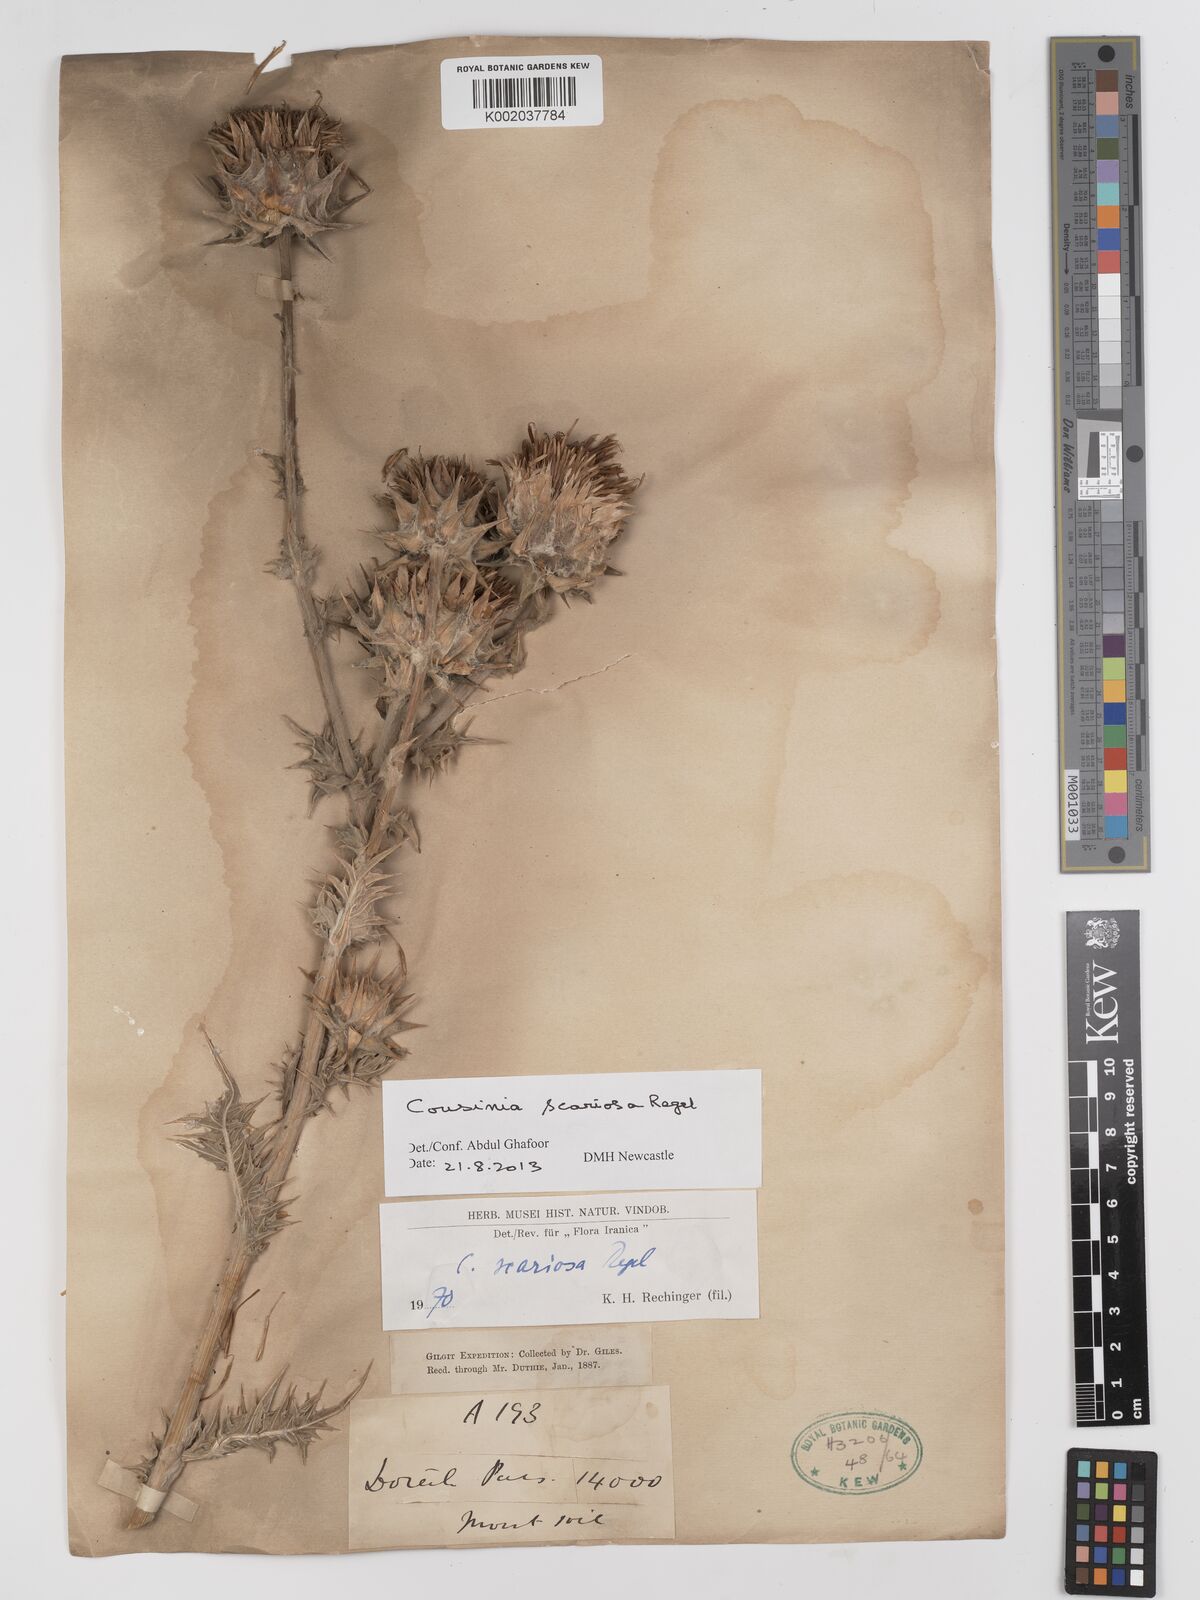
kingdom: Plantae
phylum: Tracheophyta
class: Magnoliopsida
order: Asterales
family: Asteraceae
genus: Cousinia
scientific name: Cousinia scariosa
